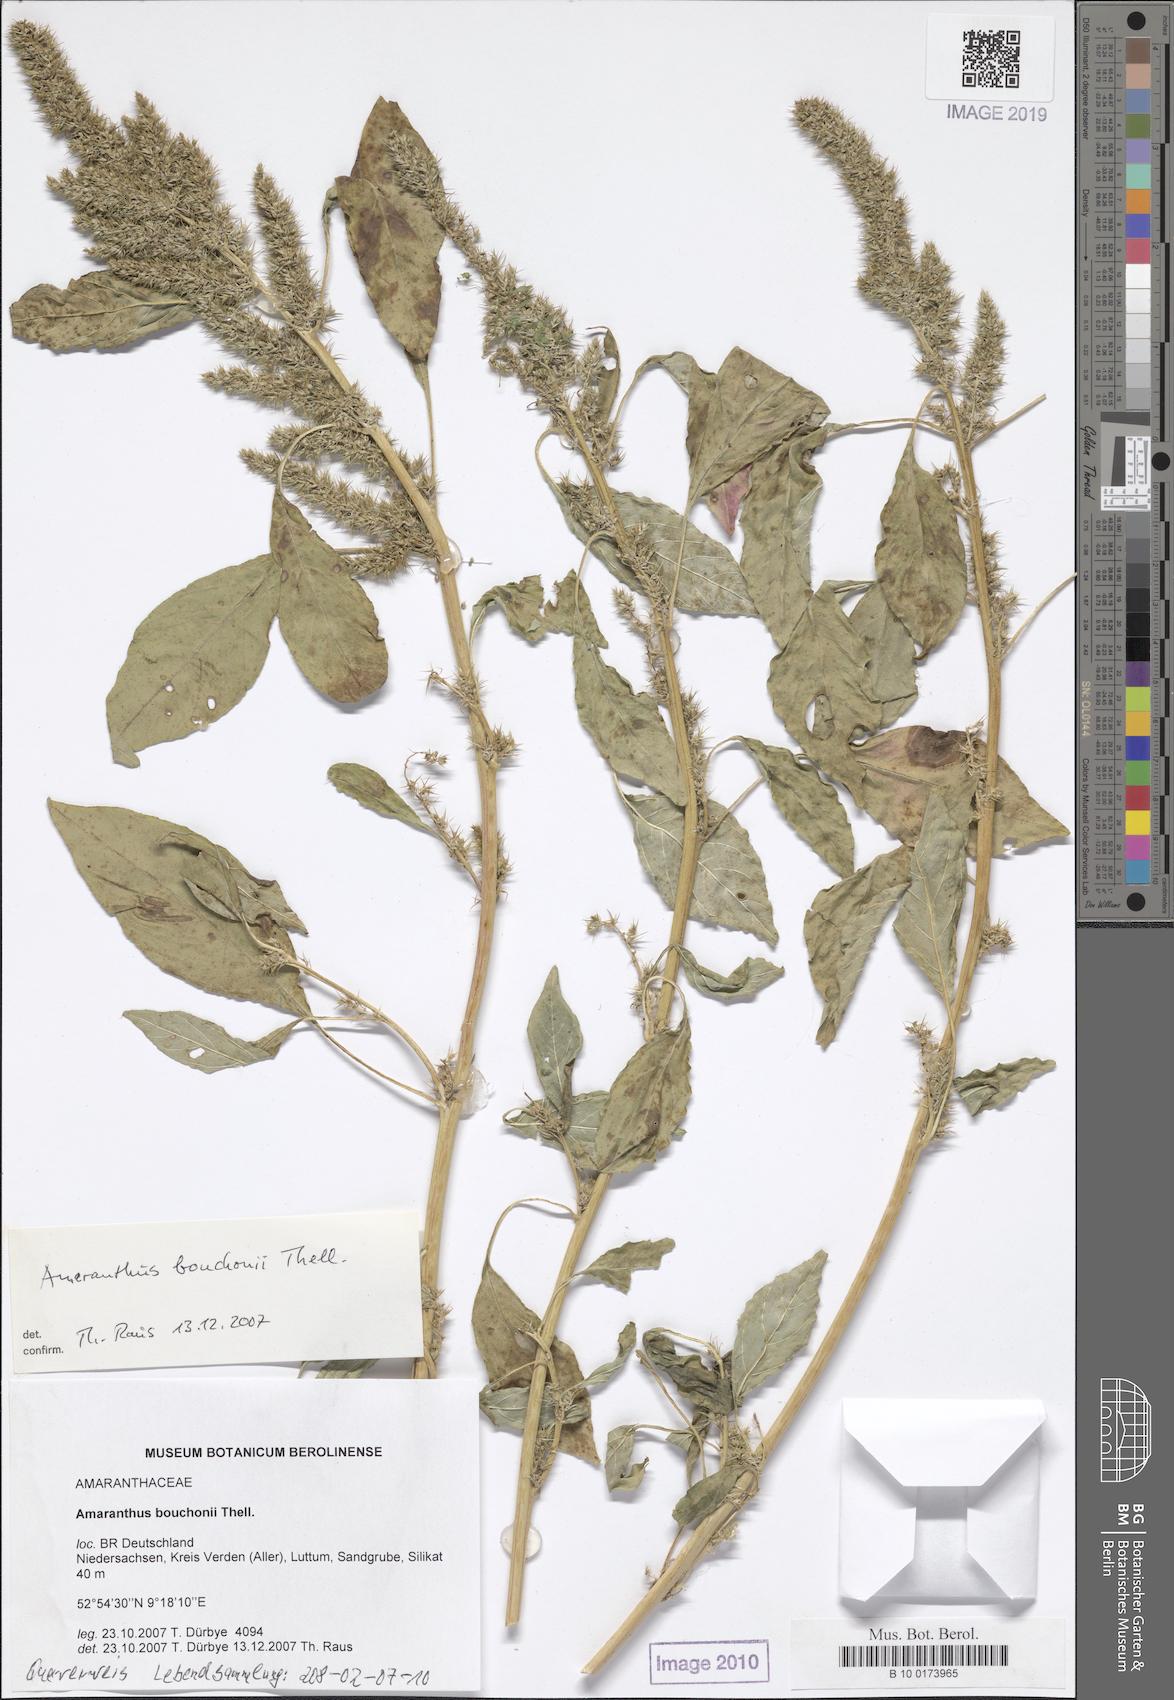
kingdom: Plantae
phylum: Tracheophyta
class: Magnoliopsida
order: Caryophyllales
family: Amaranthaceae
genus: Amaranthus
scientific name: Amaranthus bouchonii
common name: Indehiscent amaranth
